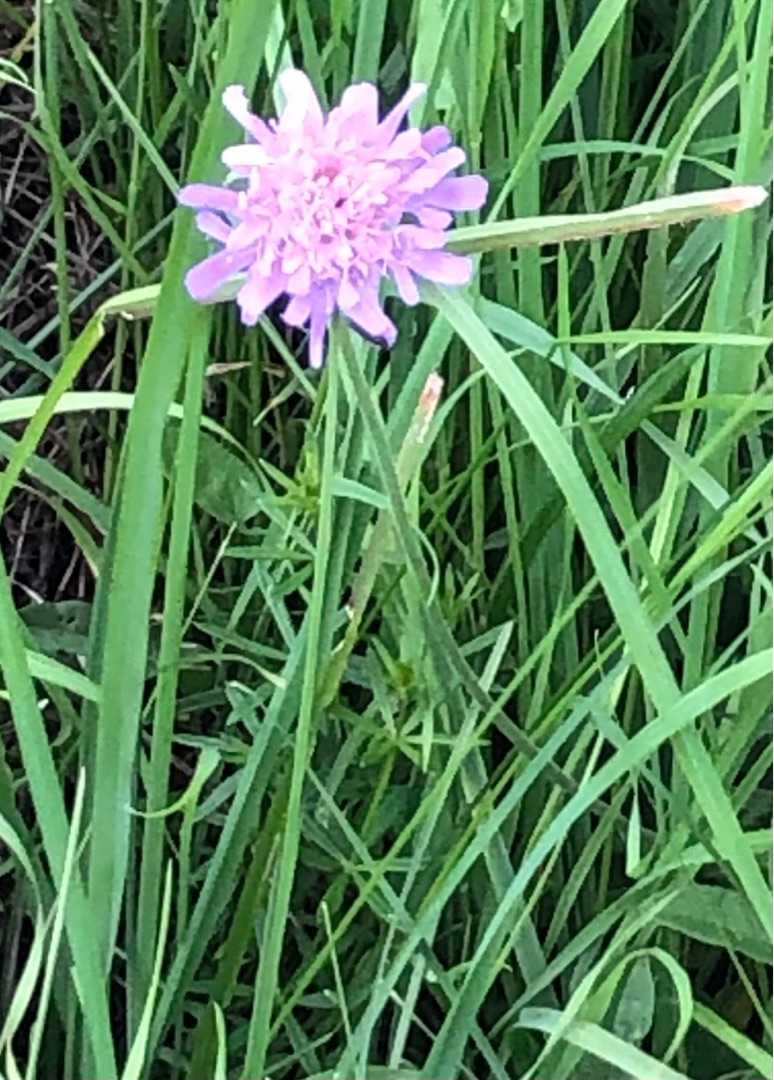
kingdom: Plantae
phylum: Tracheophyta
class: Magnoliopsida
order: Dipsacales
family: Caprifoliaceae
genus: Knautia
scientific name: Knautia arvensis
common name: Blåhat
